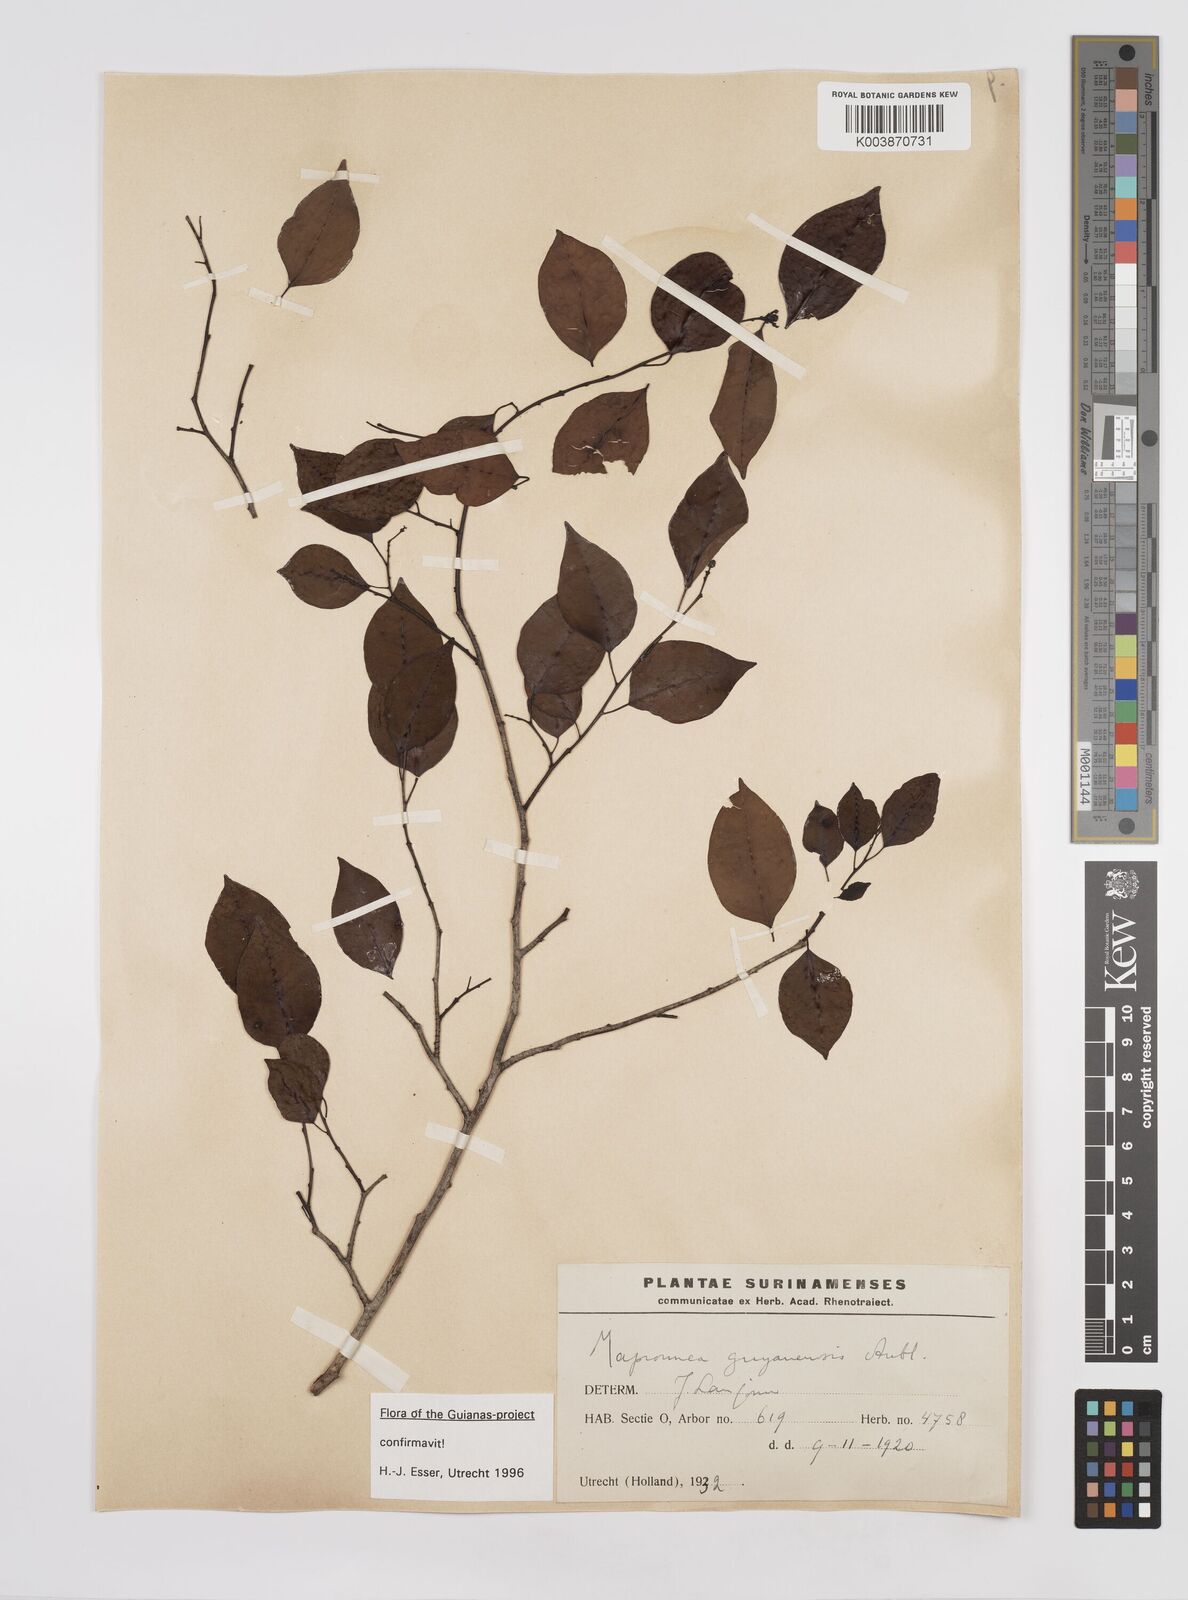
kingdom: Plantae
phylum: Tracheophyta
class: Magnoliopsida
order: Malpighiales
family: Euphorbiaceae
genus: Maprounea
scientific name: Maprounea guianensis
